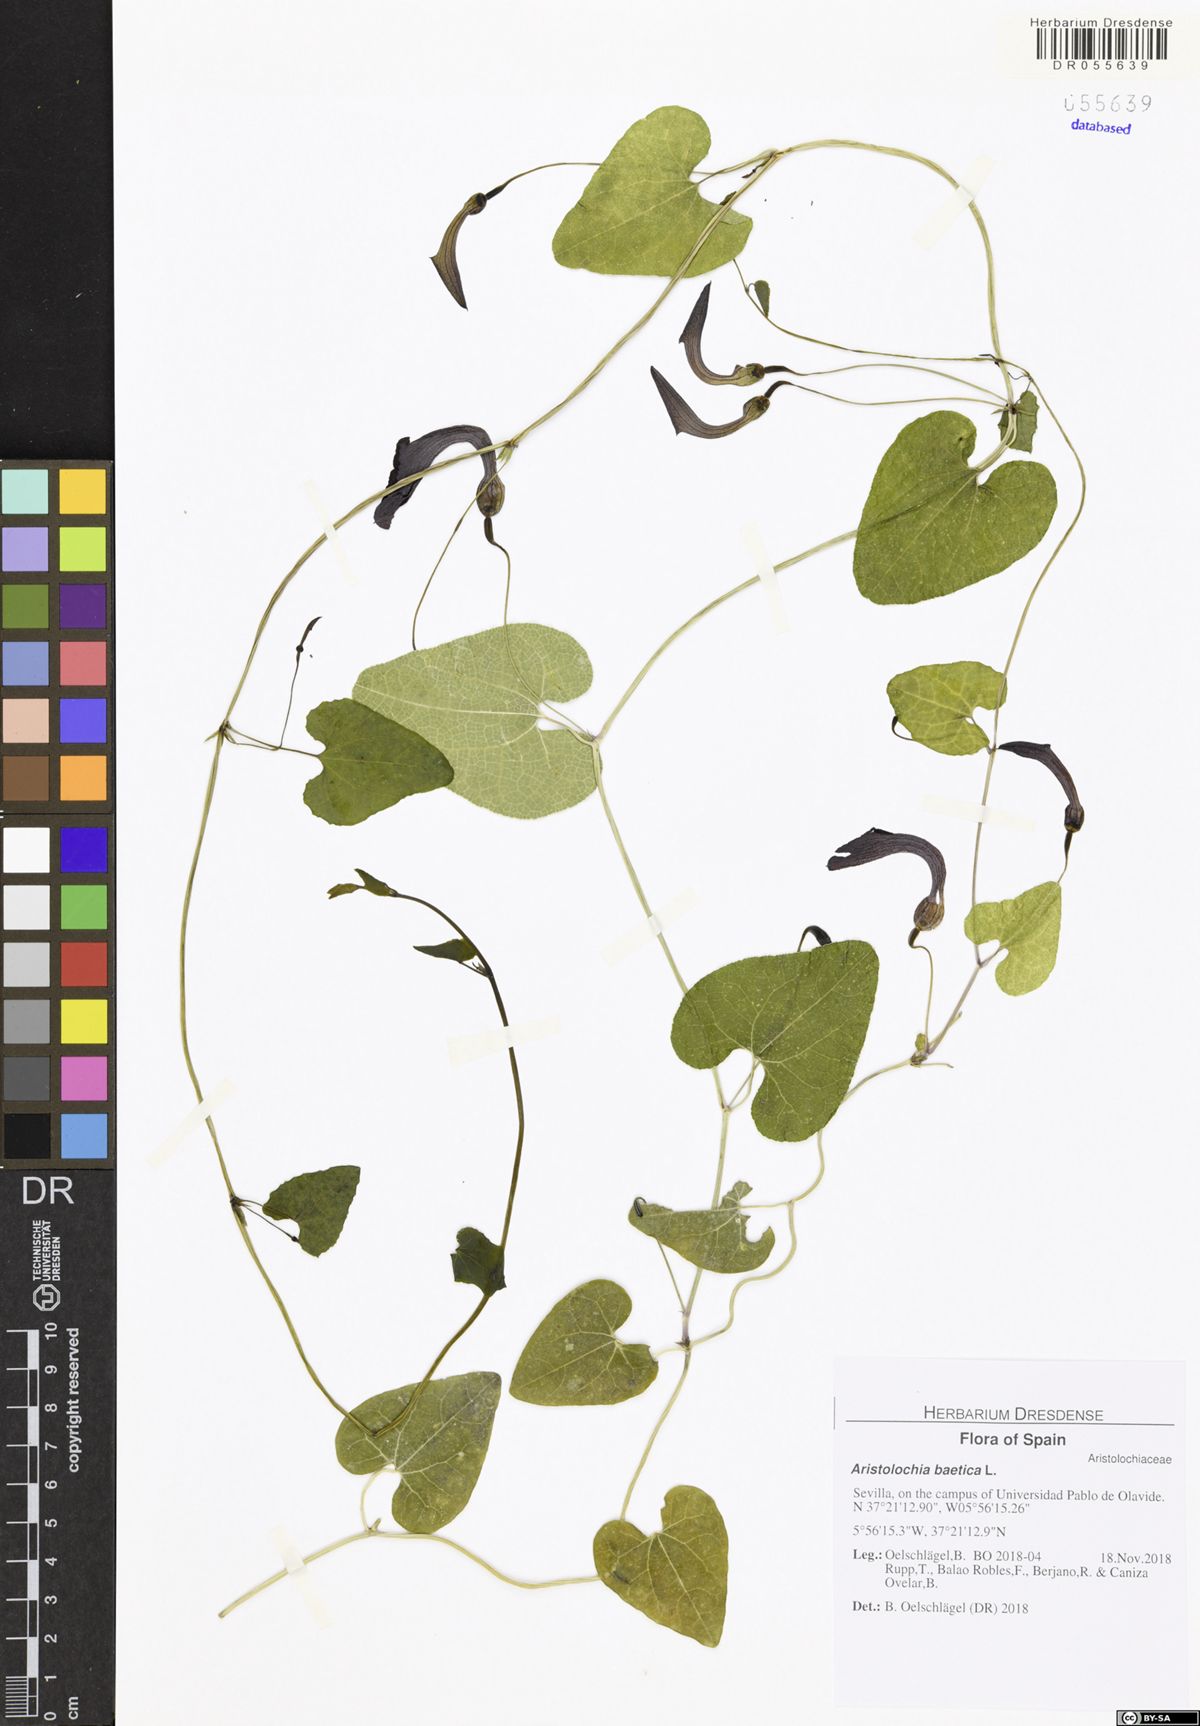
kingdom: Plantae
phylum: Tracheophyta
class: Magnoliopsida
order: Piperales
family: Aristolochiaceae
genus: Aristolochia
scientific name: Aristolochia baetica
